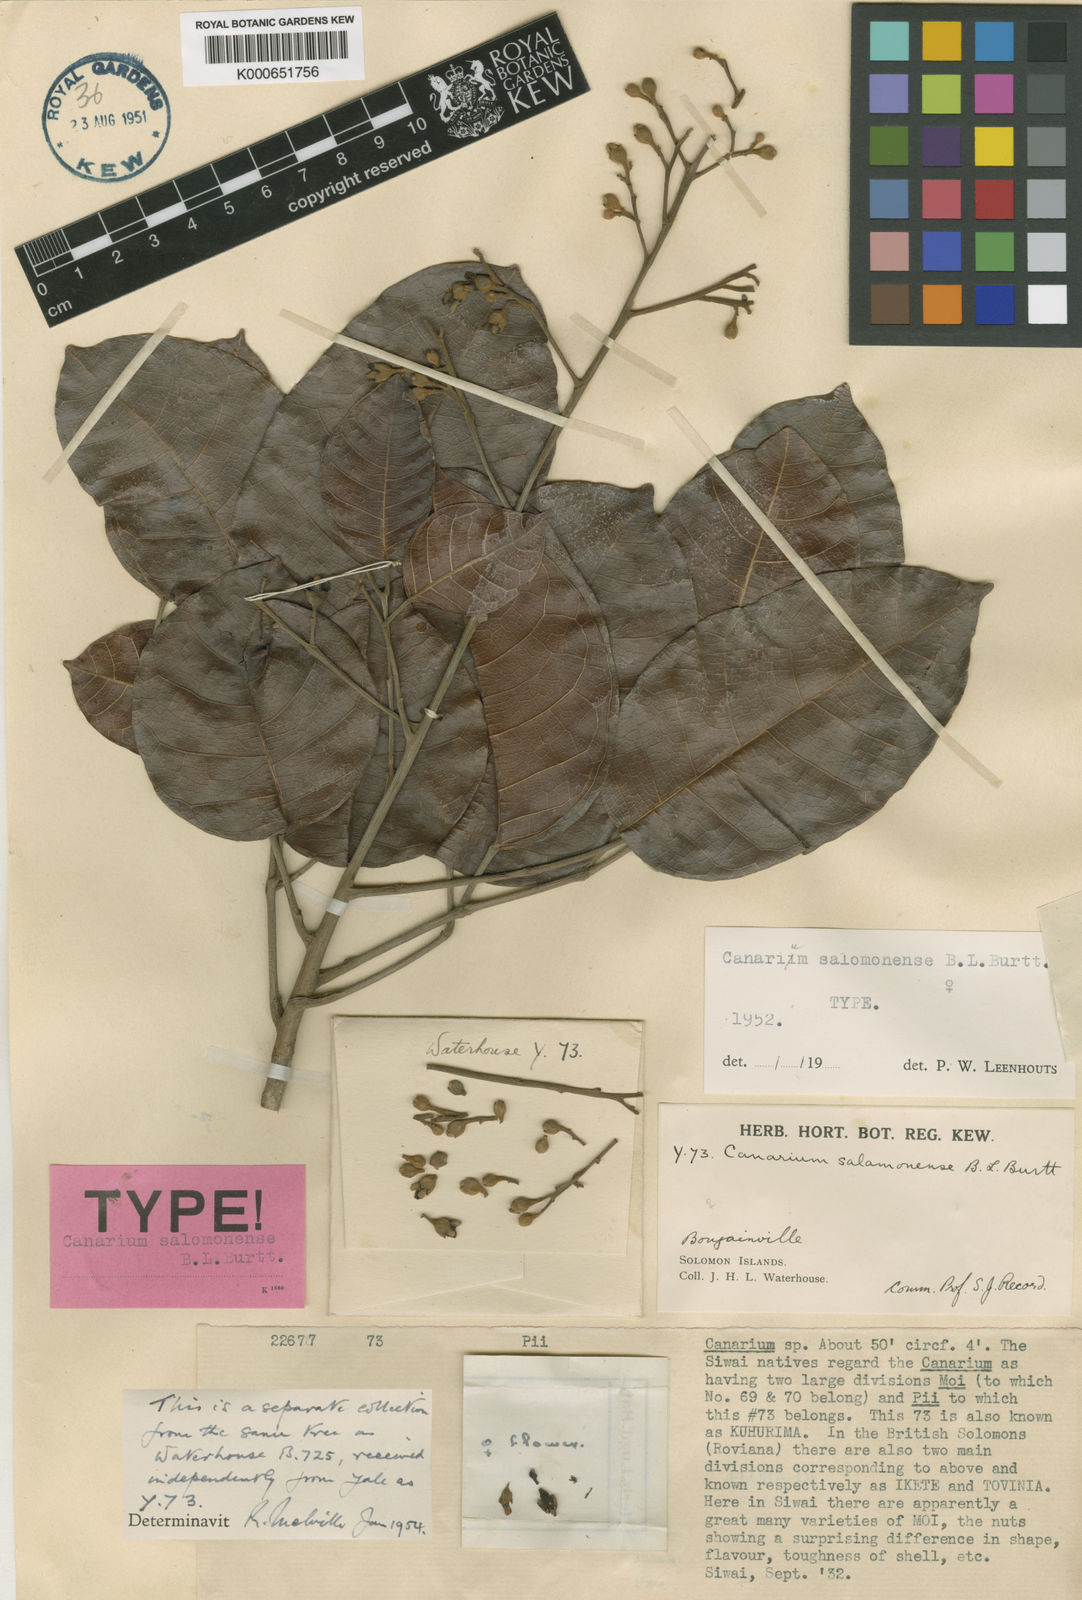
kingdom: Plantae
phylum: Tracheophyta
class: Magnoliopsida
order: Sapindales
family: Burseraceae
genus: Canarium
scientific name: Canarium salomonense
